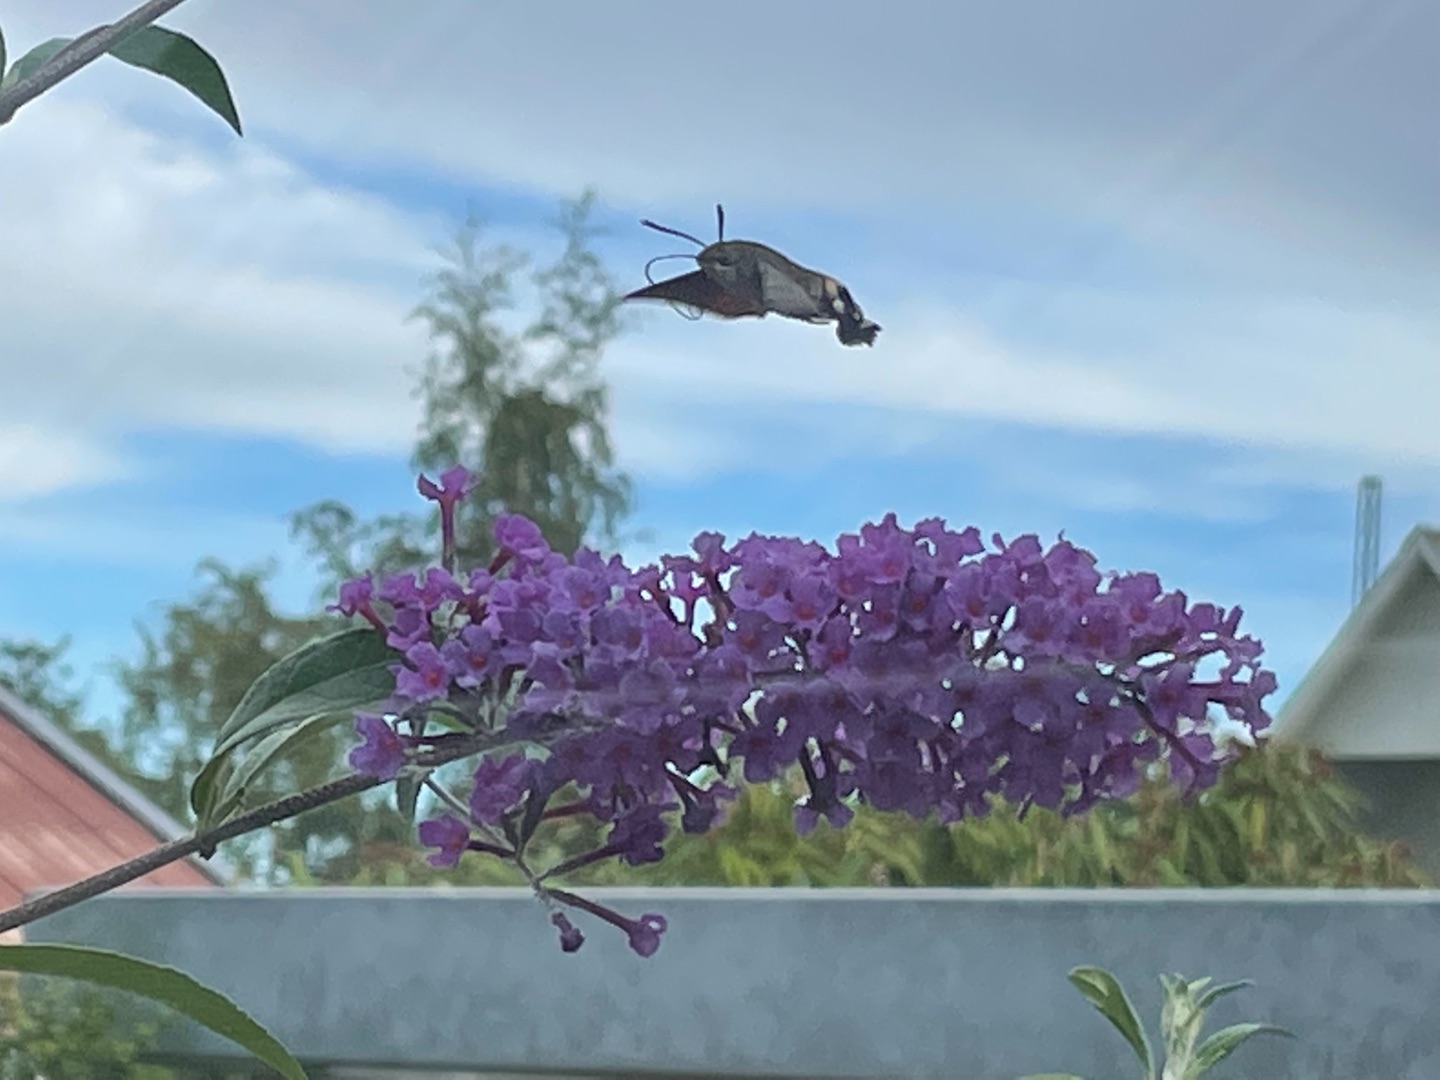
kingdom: Animalia
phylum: Arthropoda
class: Insecta
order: Lepidoptera
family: Sphingidae
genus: Macroglossum
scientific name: Macroglossum stellatarum
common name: Duehale
